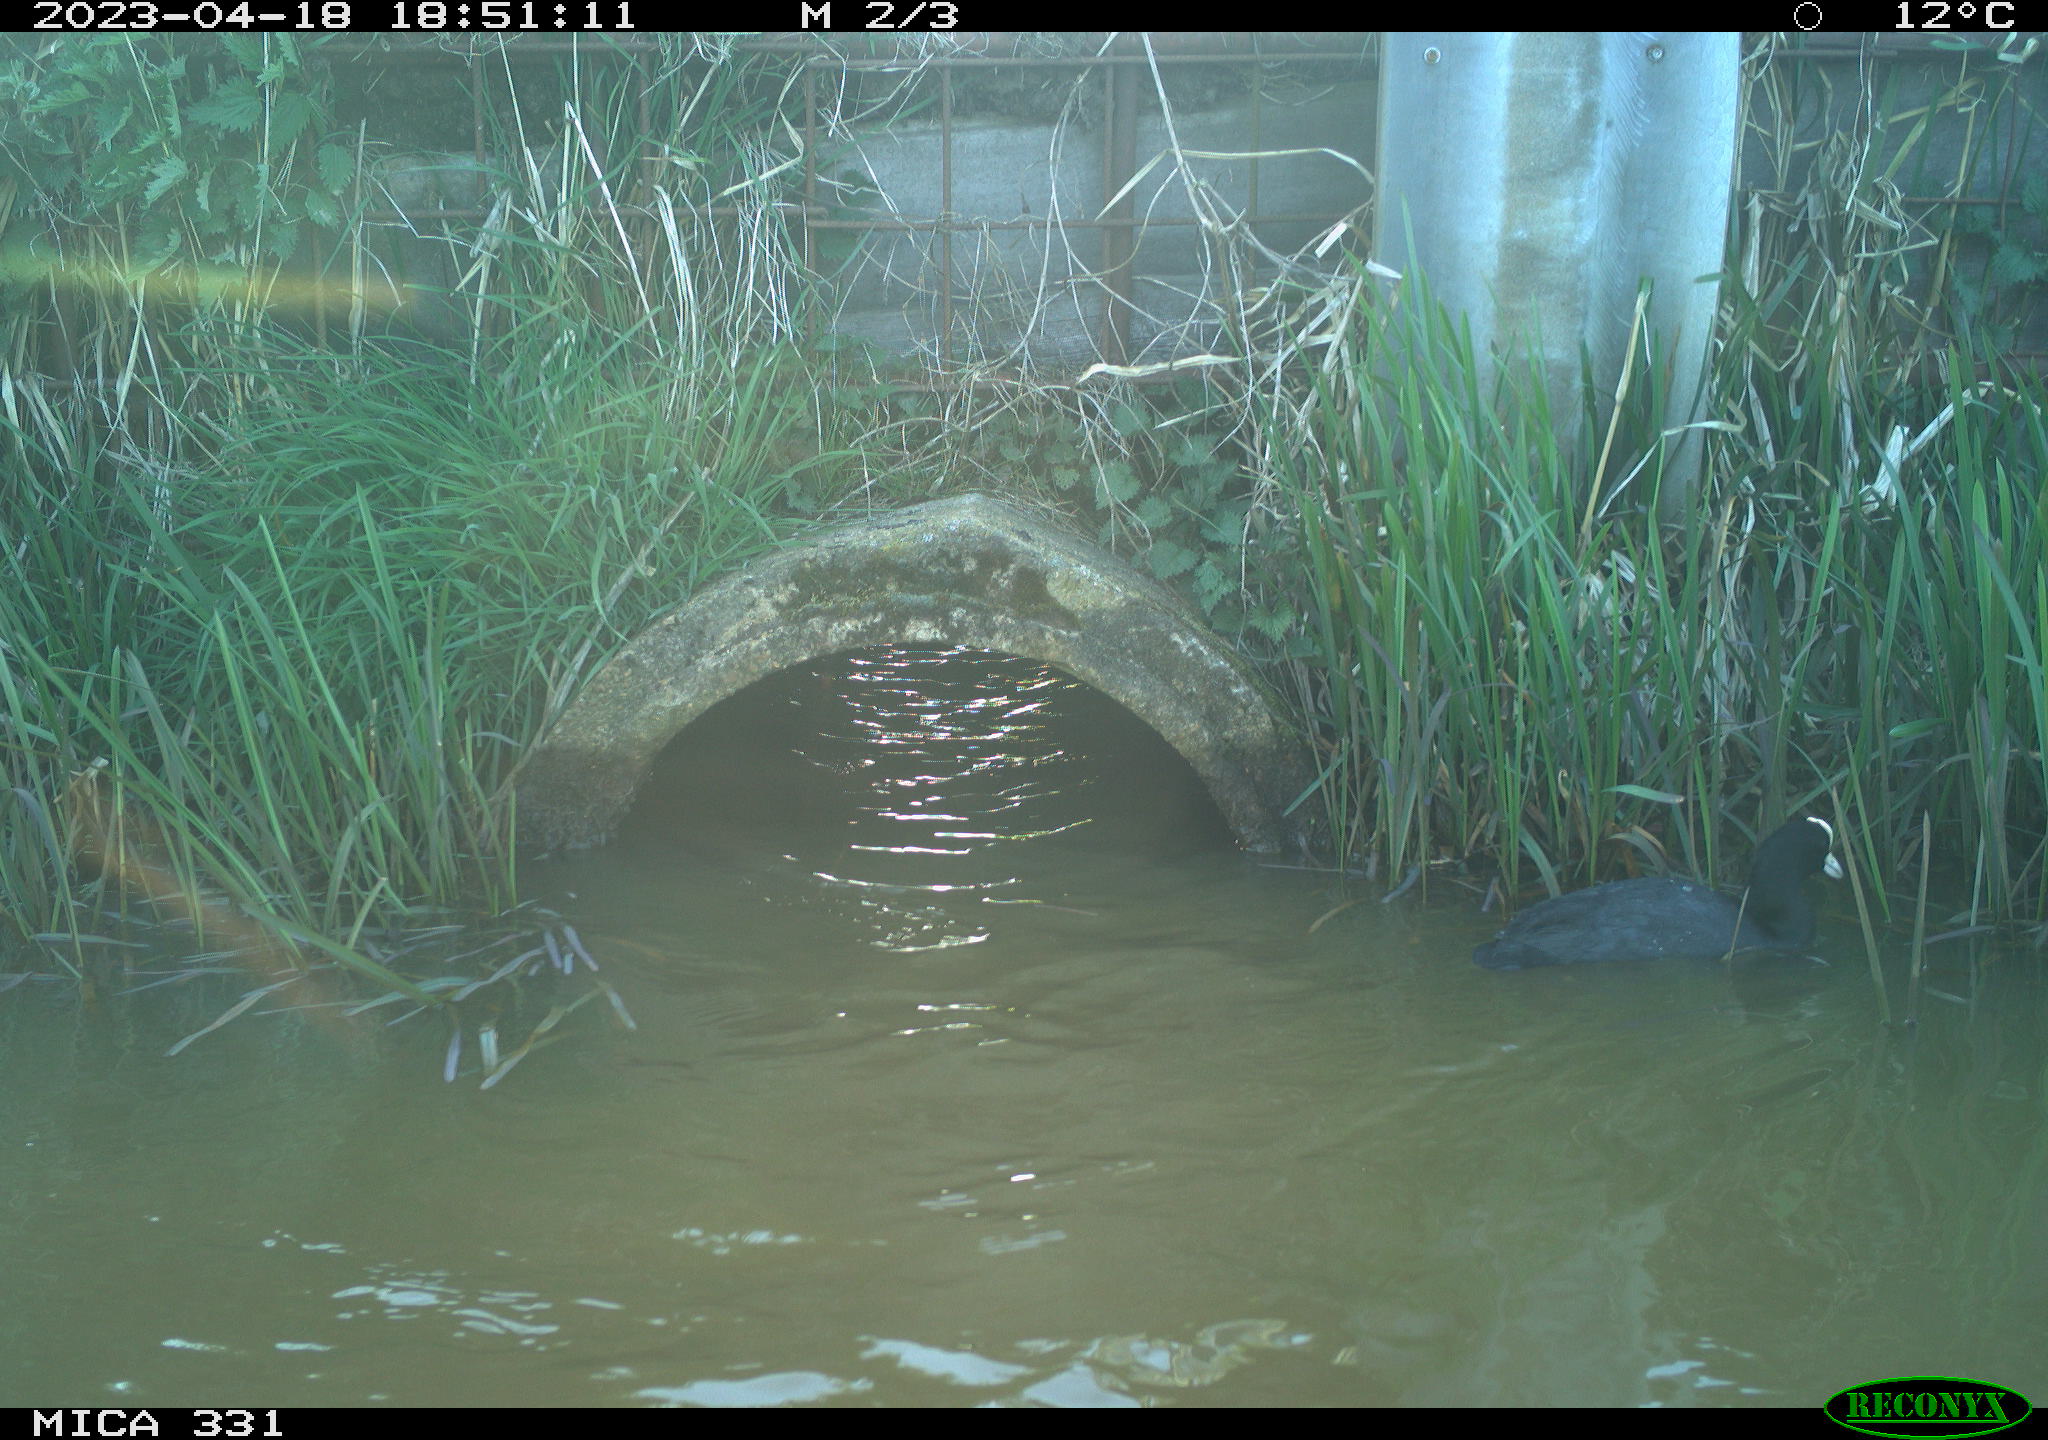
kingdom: Animalia
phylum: Chordata
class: Aves
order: Gruiformes
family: Rallidae
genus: Gallinula
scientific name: Gallinula chloropus
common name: Common moorhen
